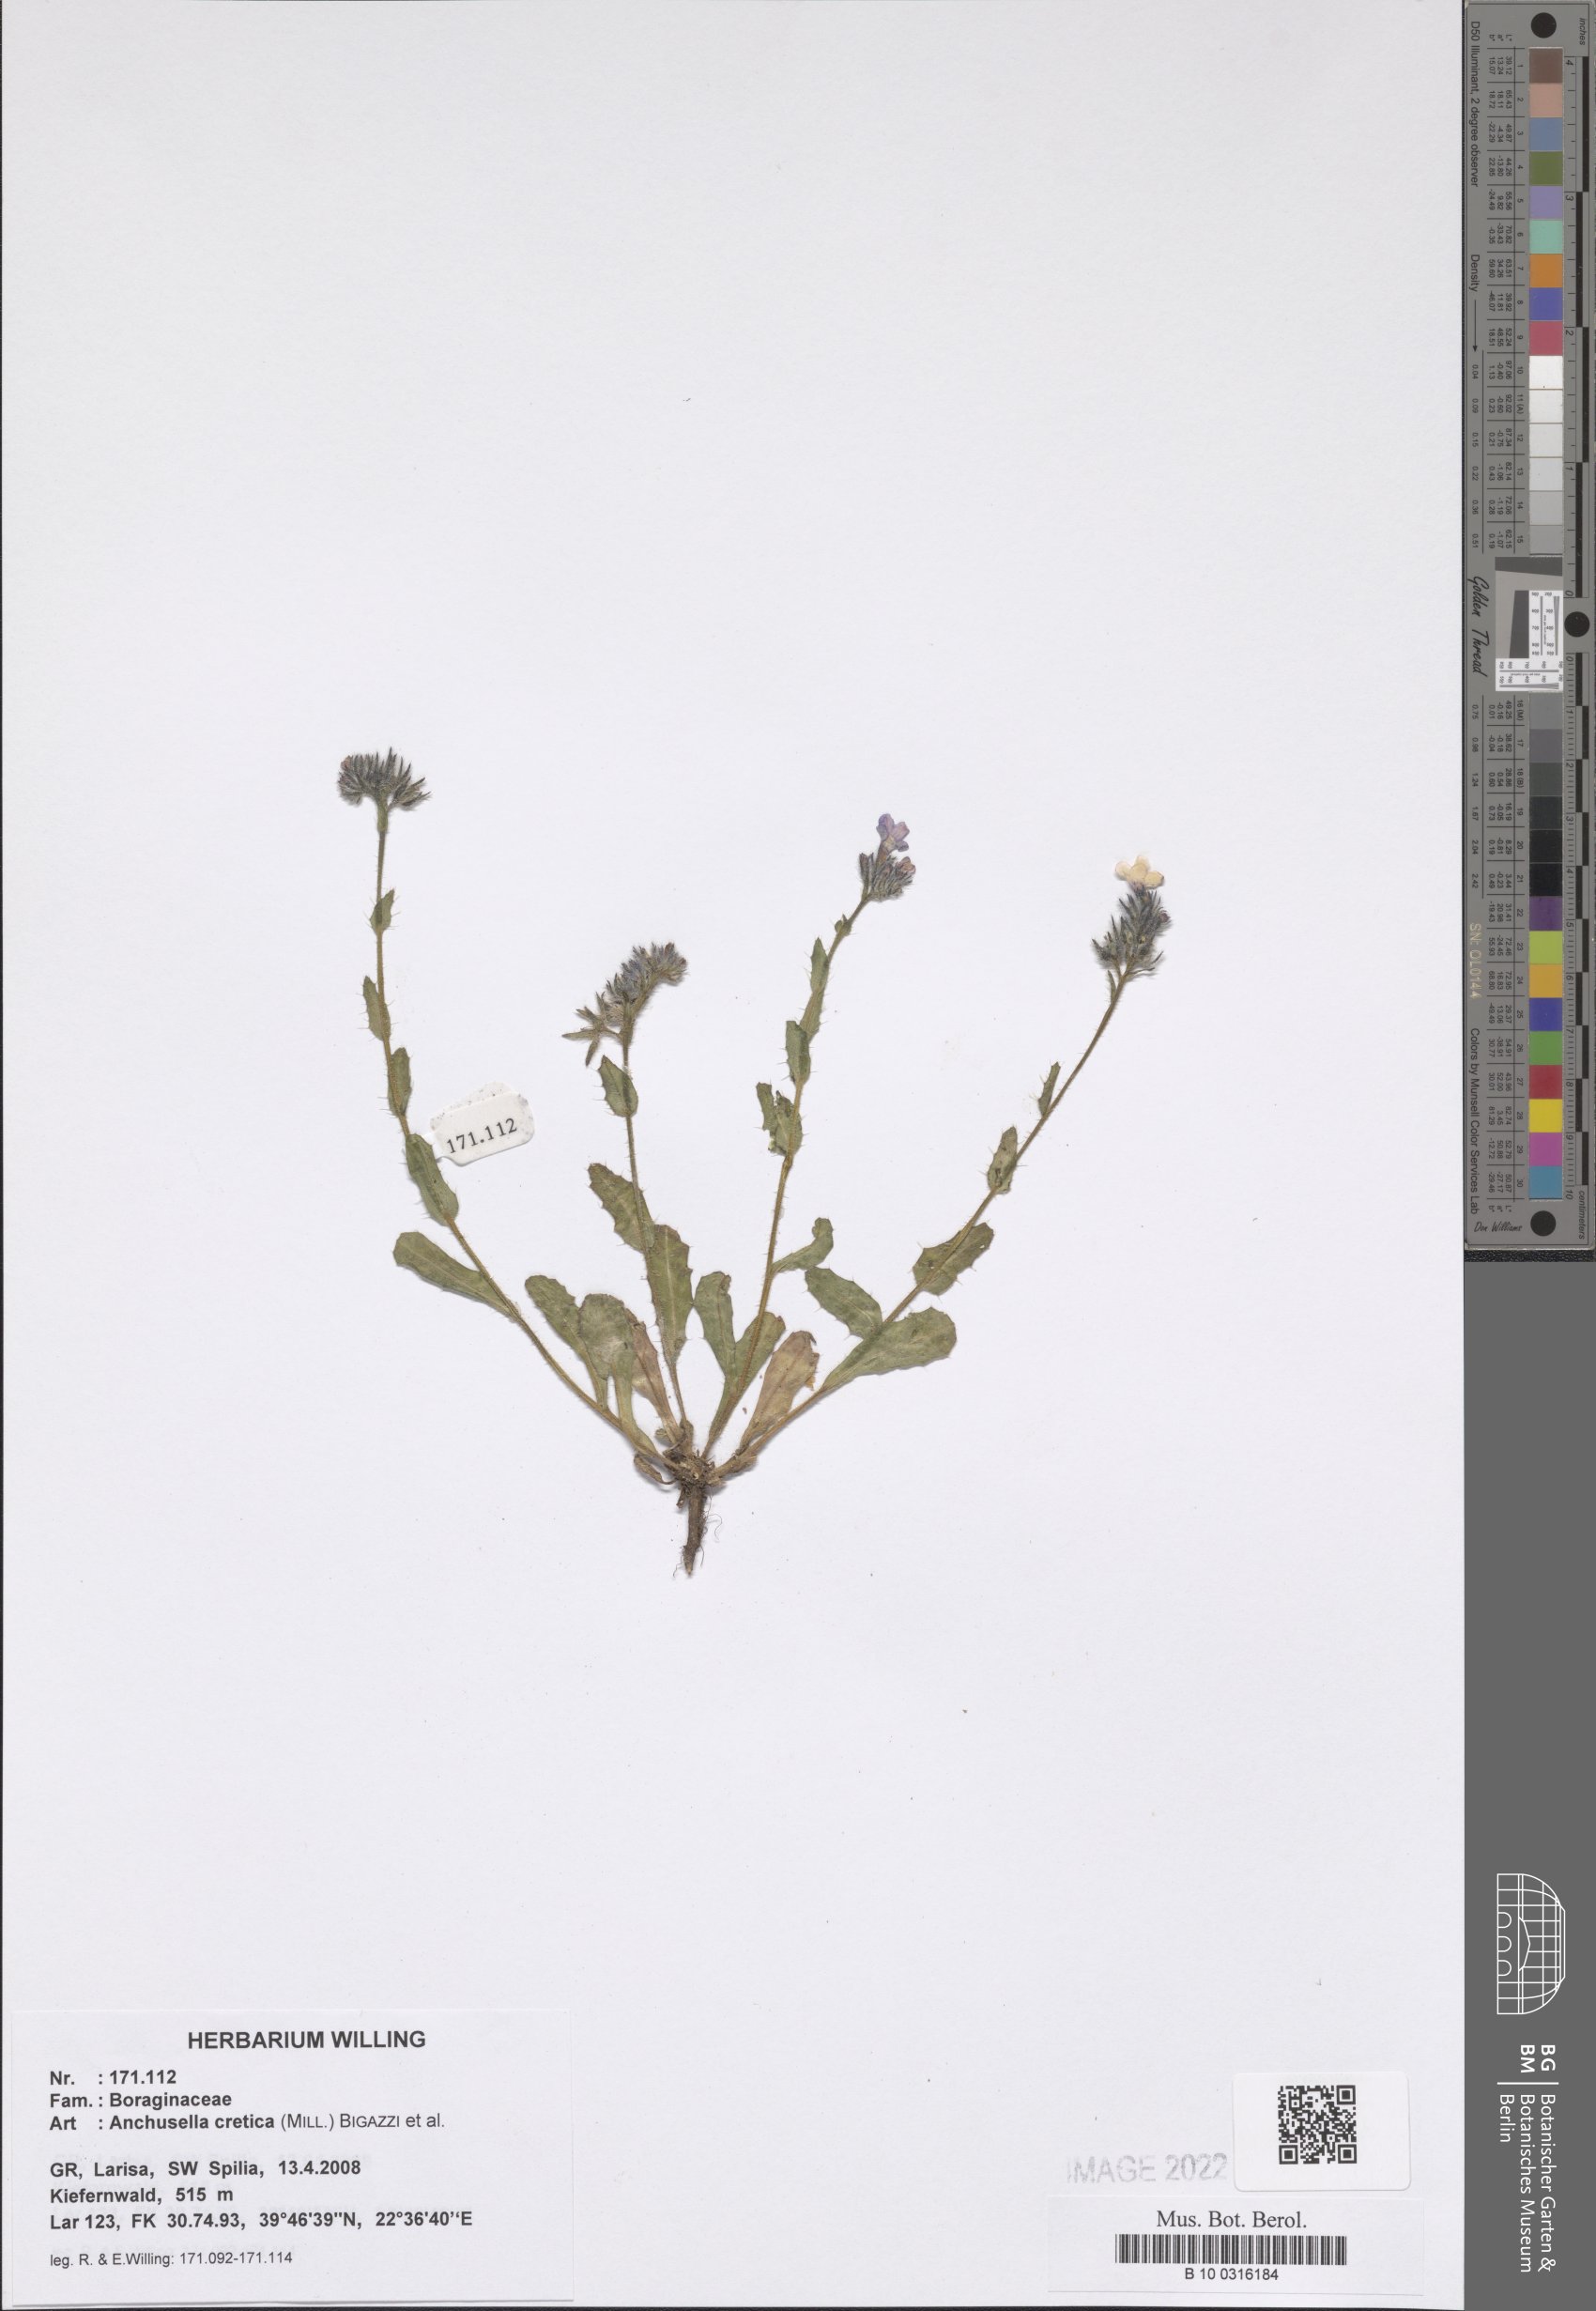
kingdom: Plantae
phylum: Tracheophyta
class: Magnoliopsida
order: Boraginales
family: Boraginaceae
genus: Anchusella
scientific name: Anchusella cretica
